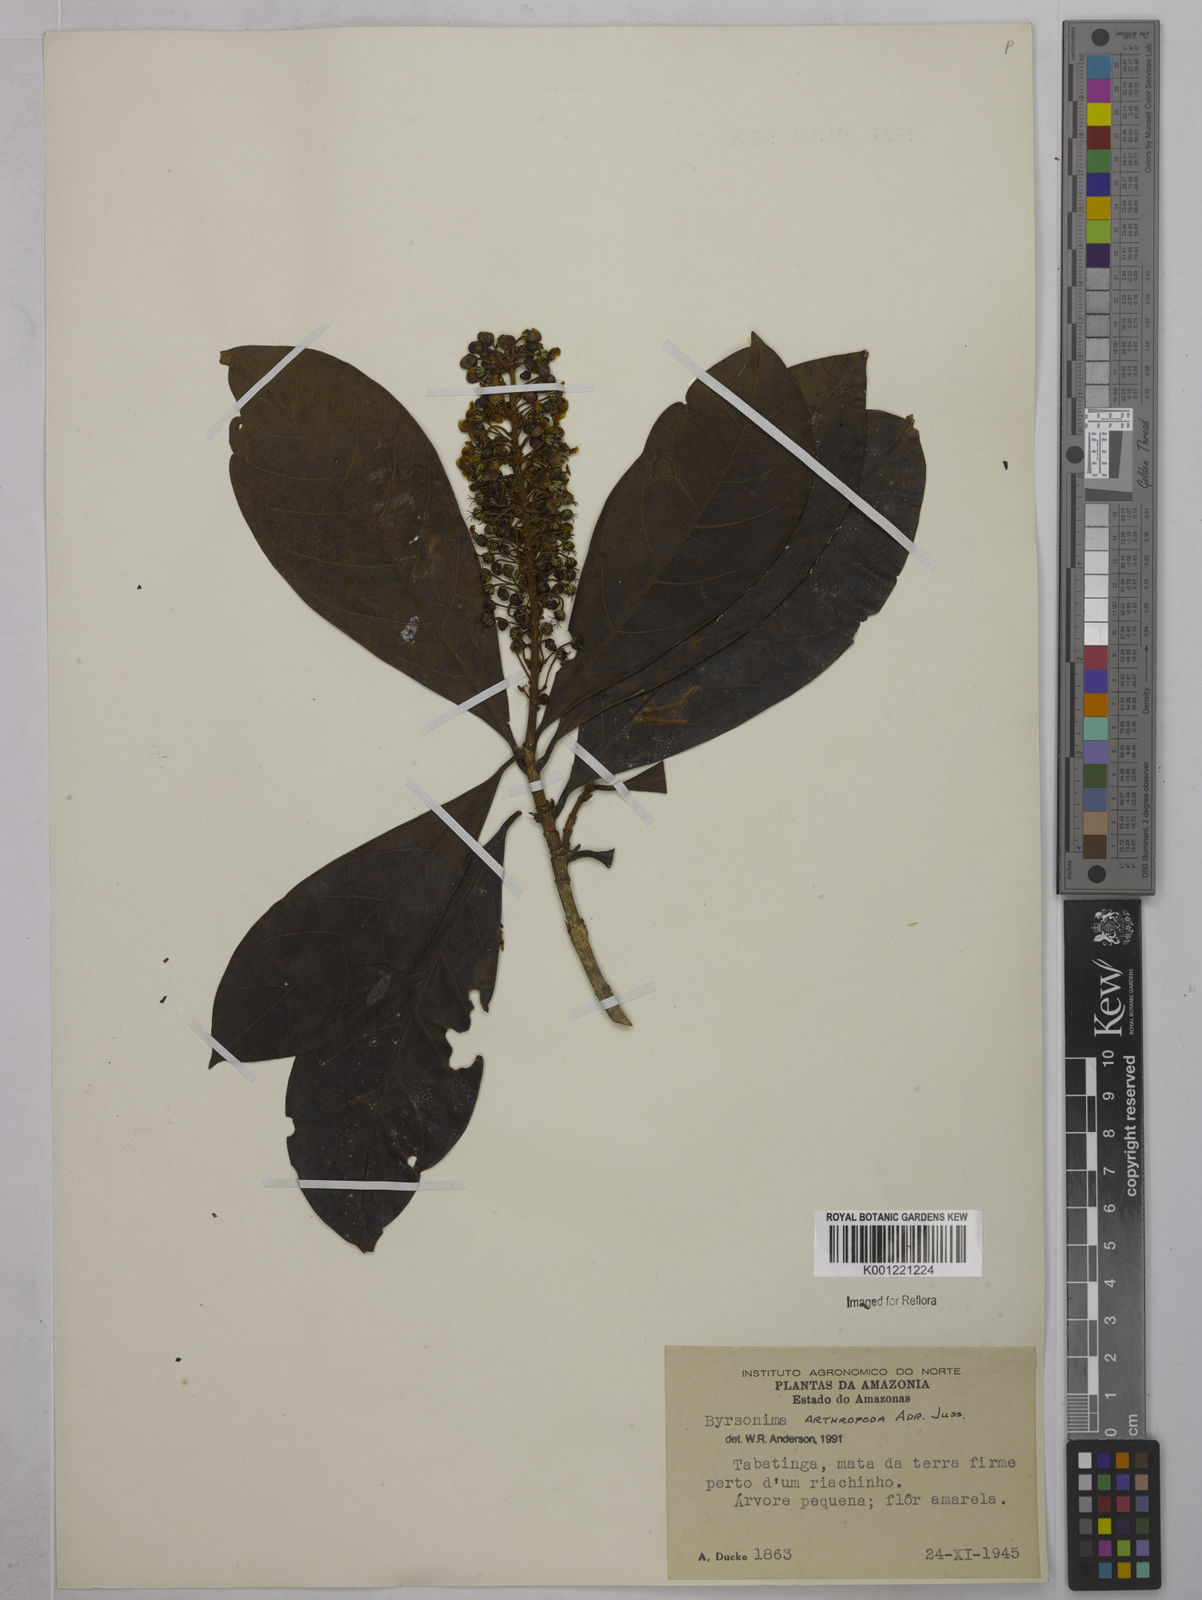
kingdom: Plantae
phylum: Tracheophyta
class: Magnoliopsida
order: Malpighiales
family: Malpighiaceae
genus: Byrsonima
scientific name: Byrsonima arthropoda
